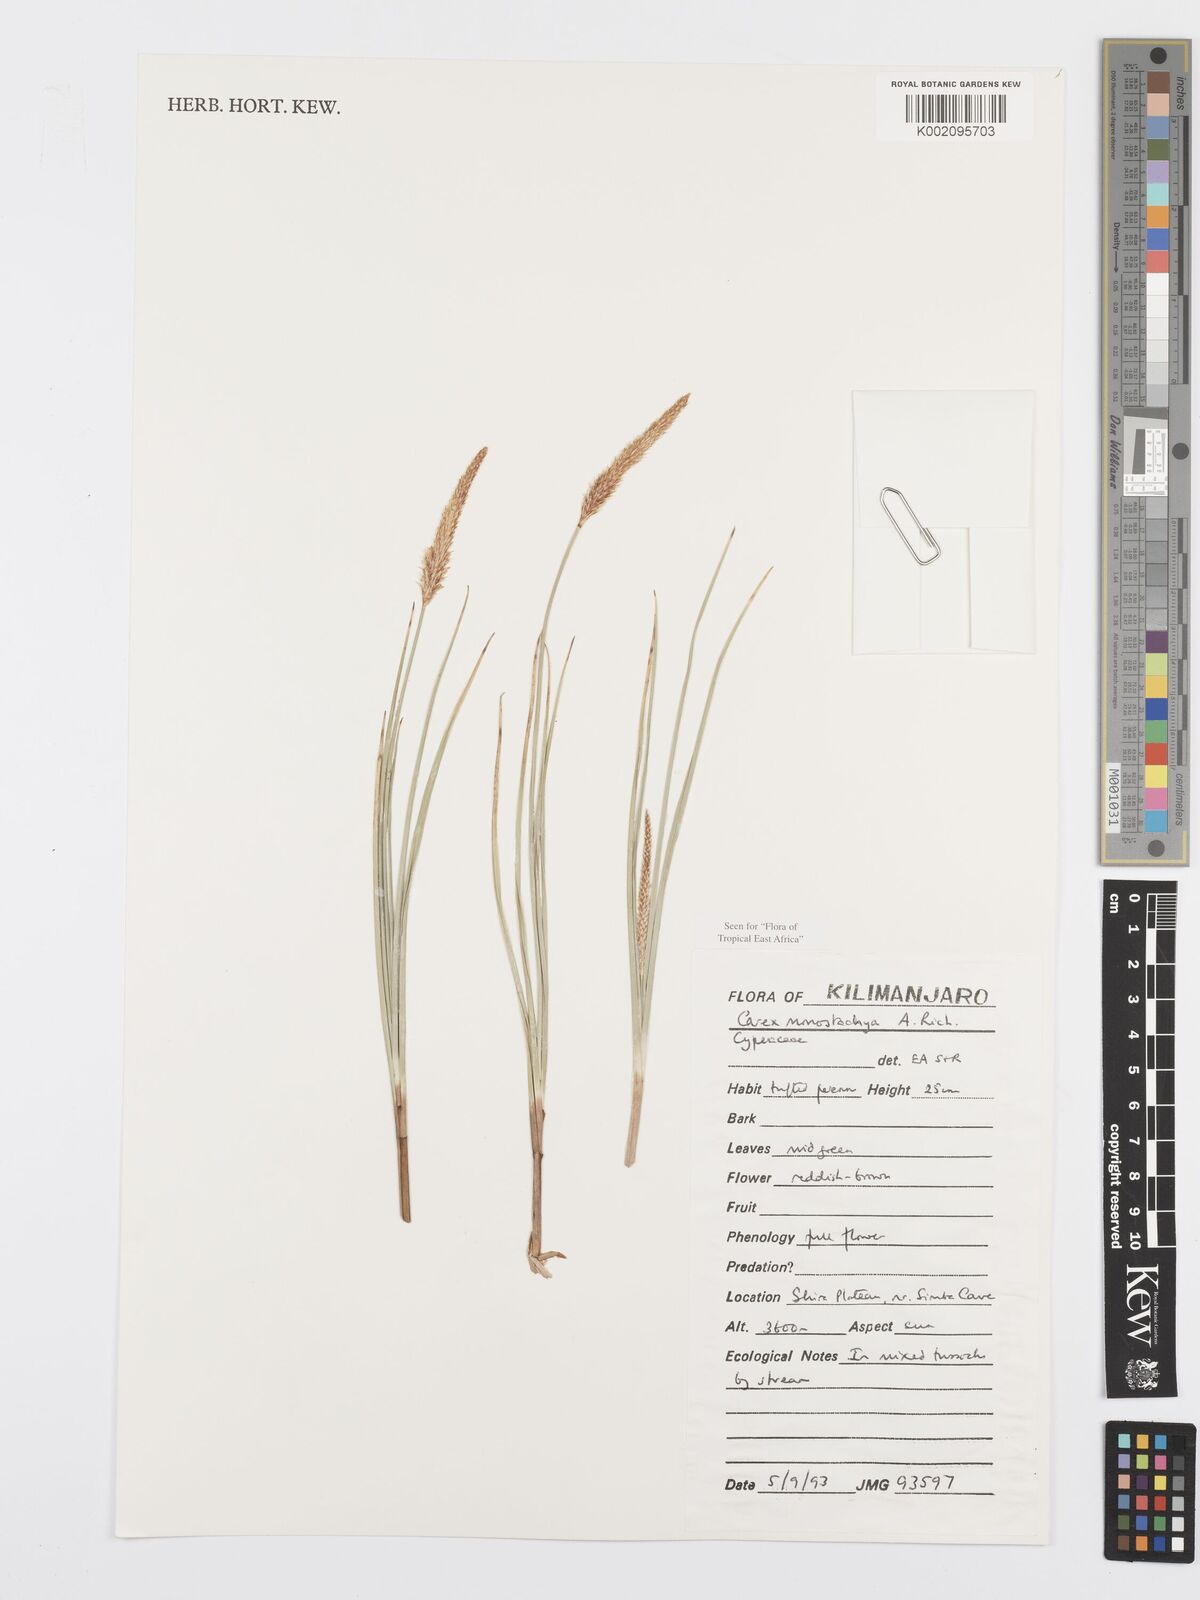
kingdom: Plantae
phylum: Tracheophyta
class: Liliopsida
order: Poales
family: Cyperaceae
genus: Carex
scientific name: Carex monostachya
